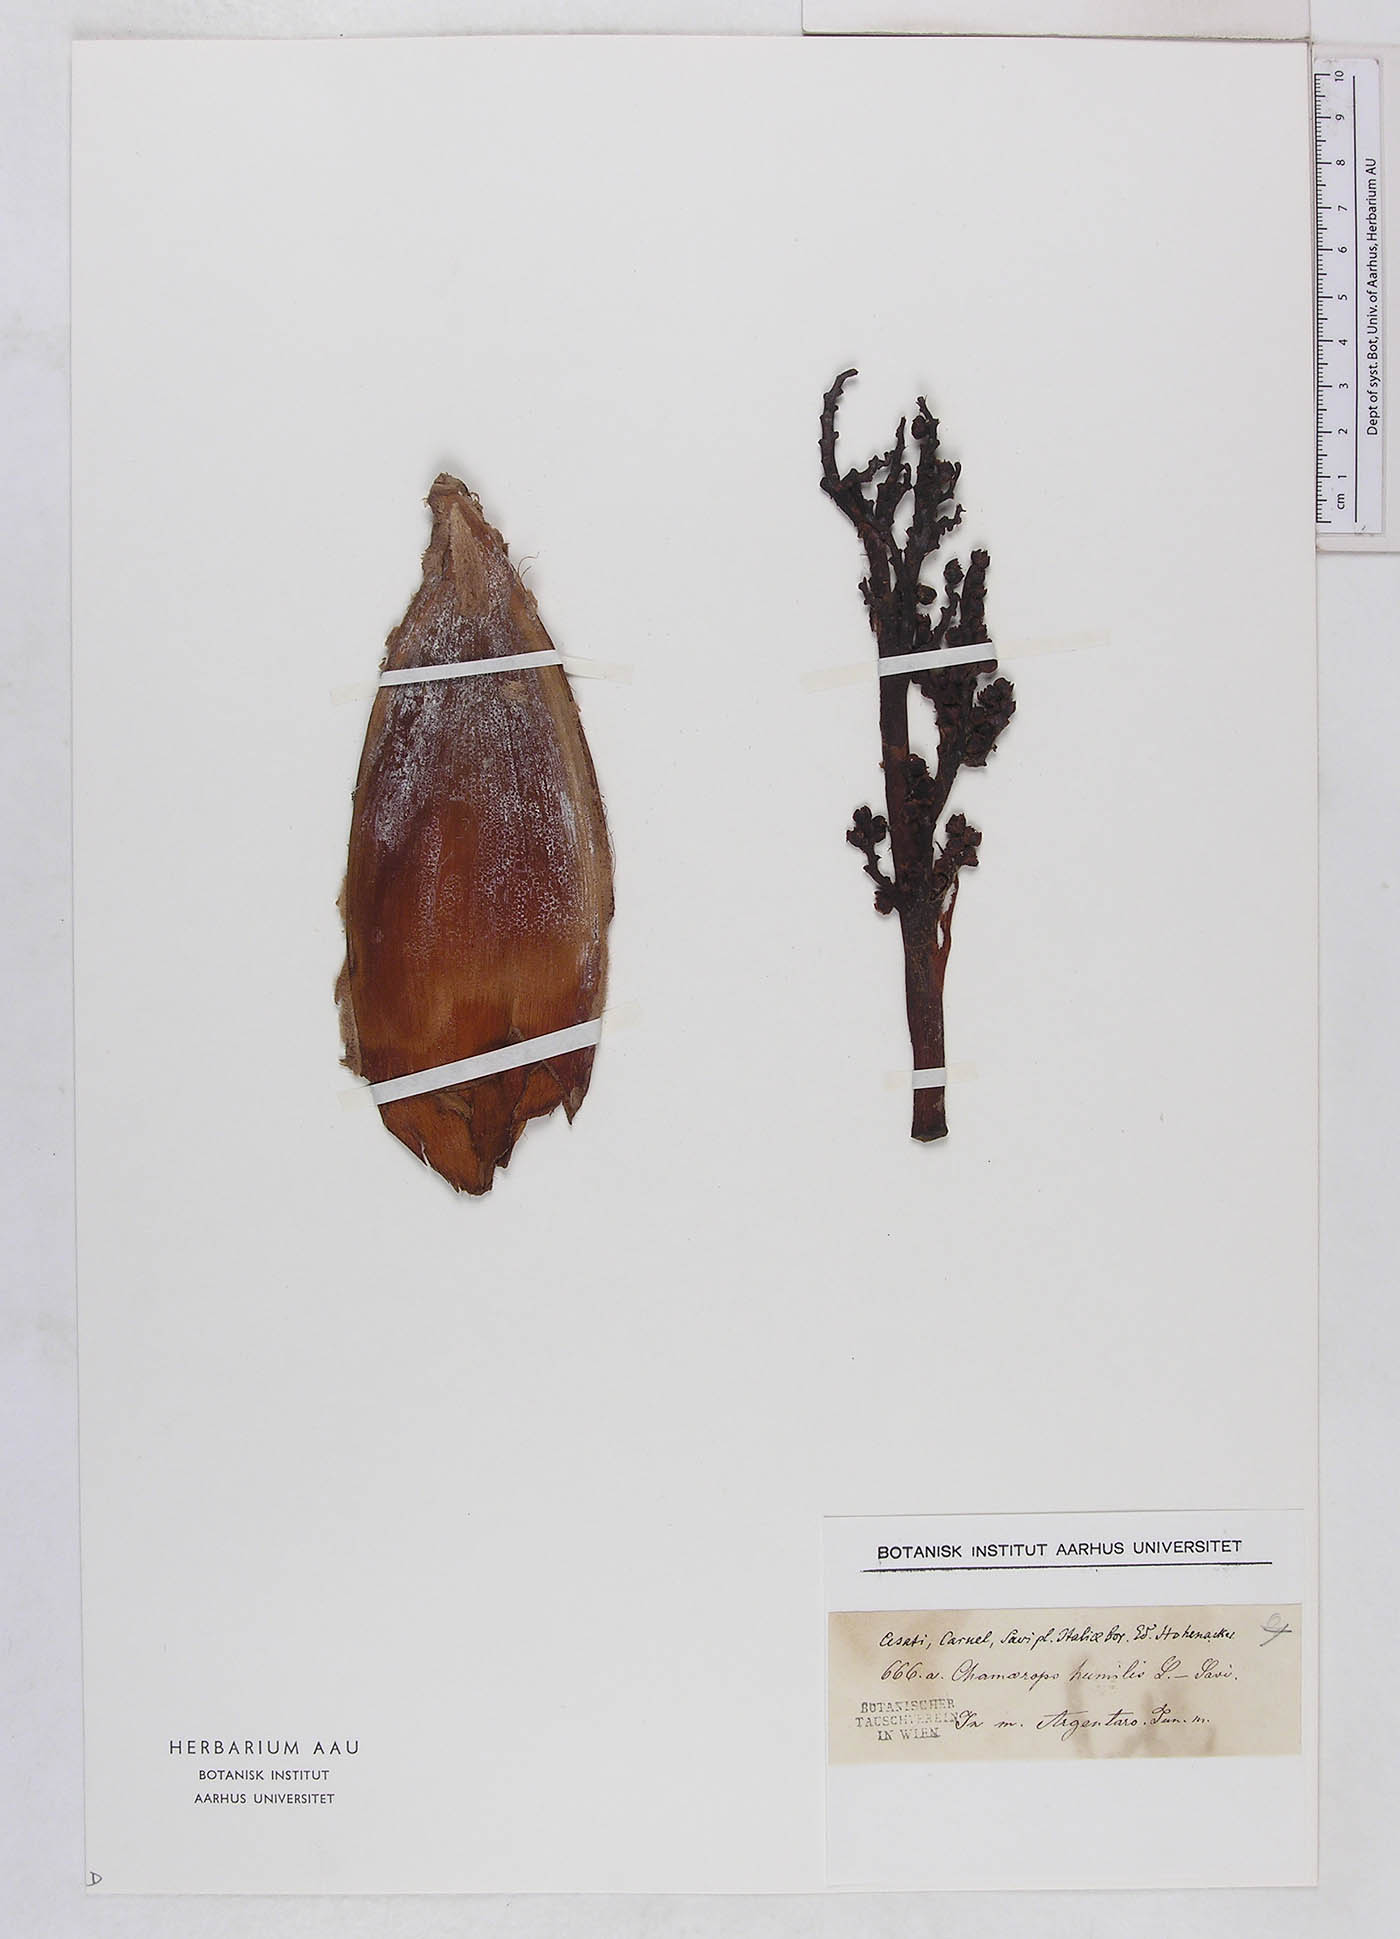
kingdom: Plantae
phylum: Tracheophyta
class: Liliopsida
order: Arecales
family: Arecaceae
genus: Chamaerops
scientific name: Chamaerops humilis
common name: Dwarf fan palm
